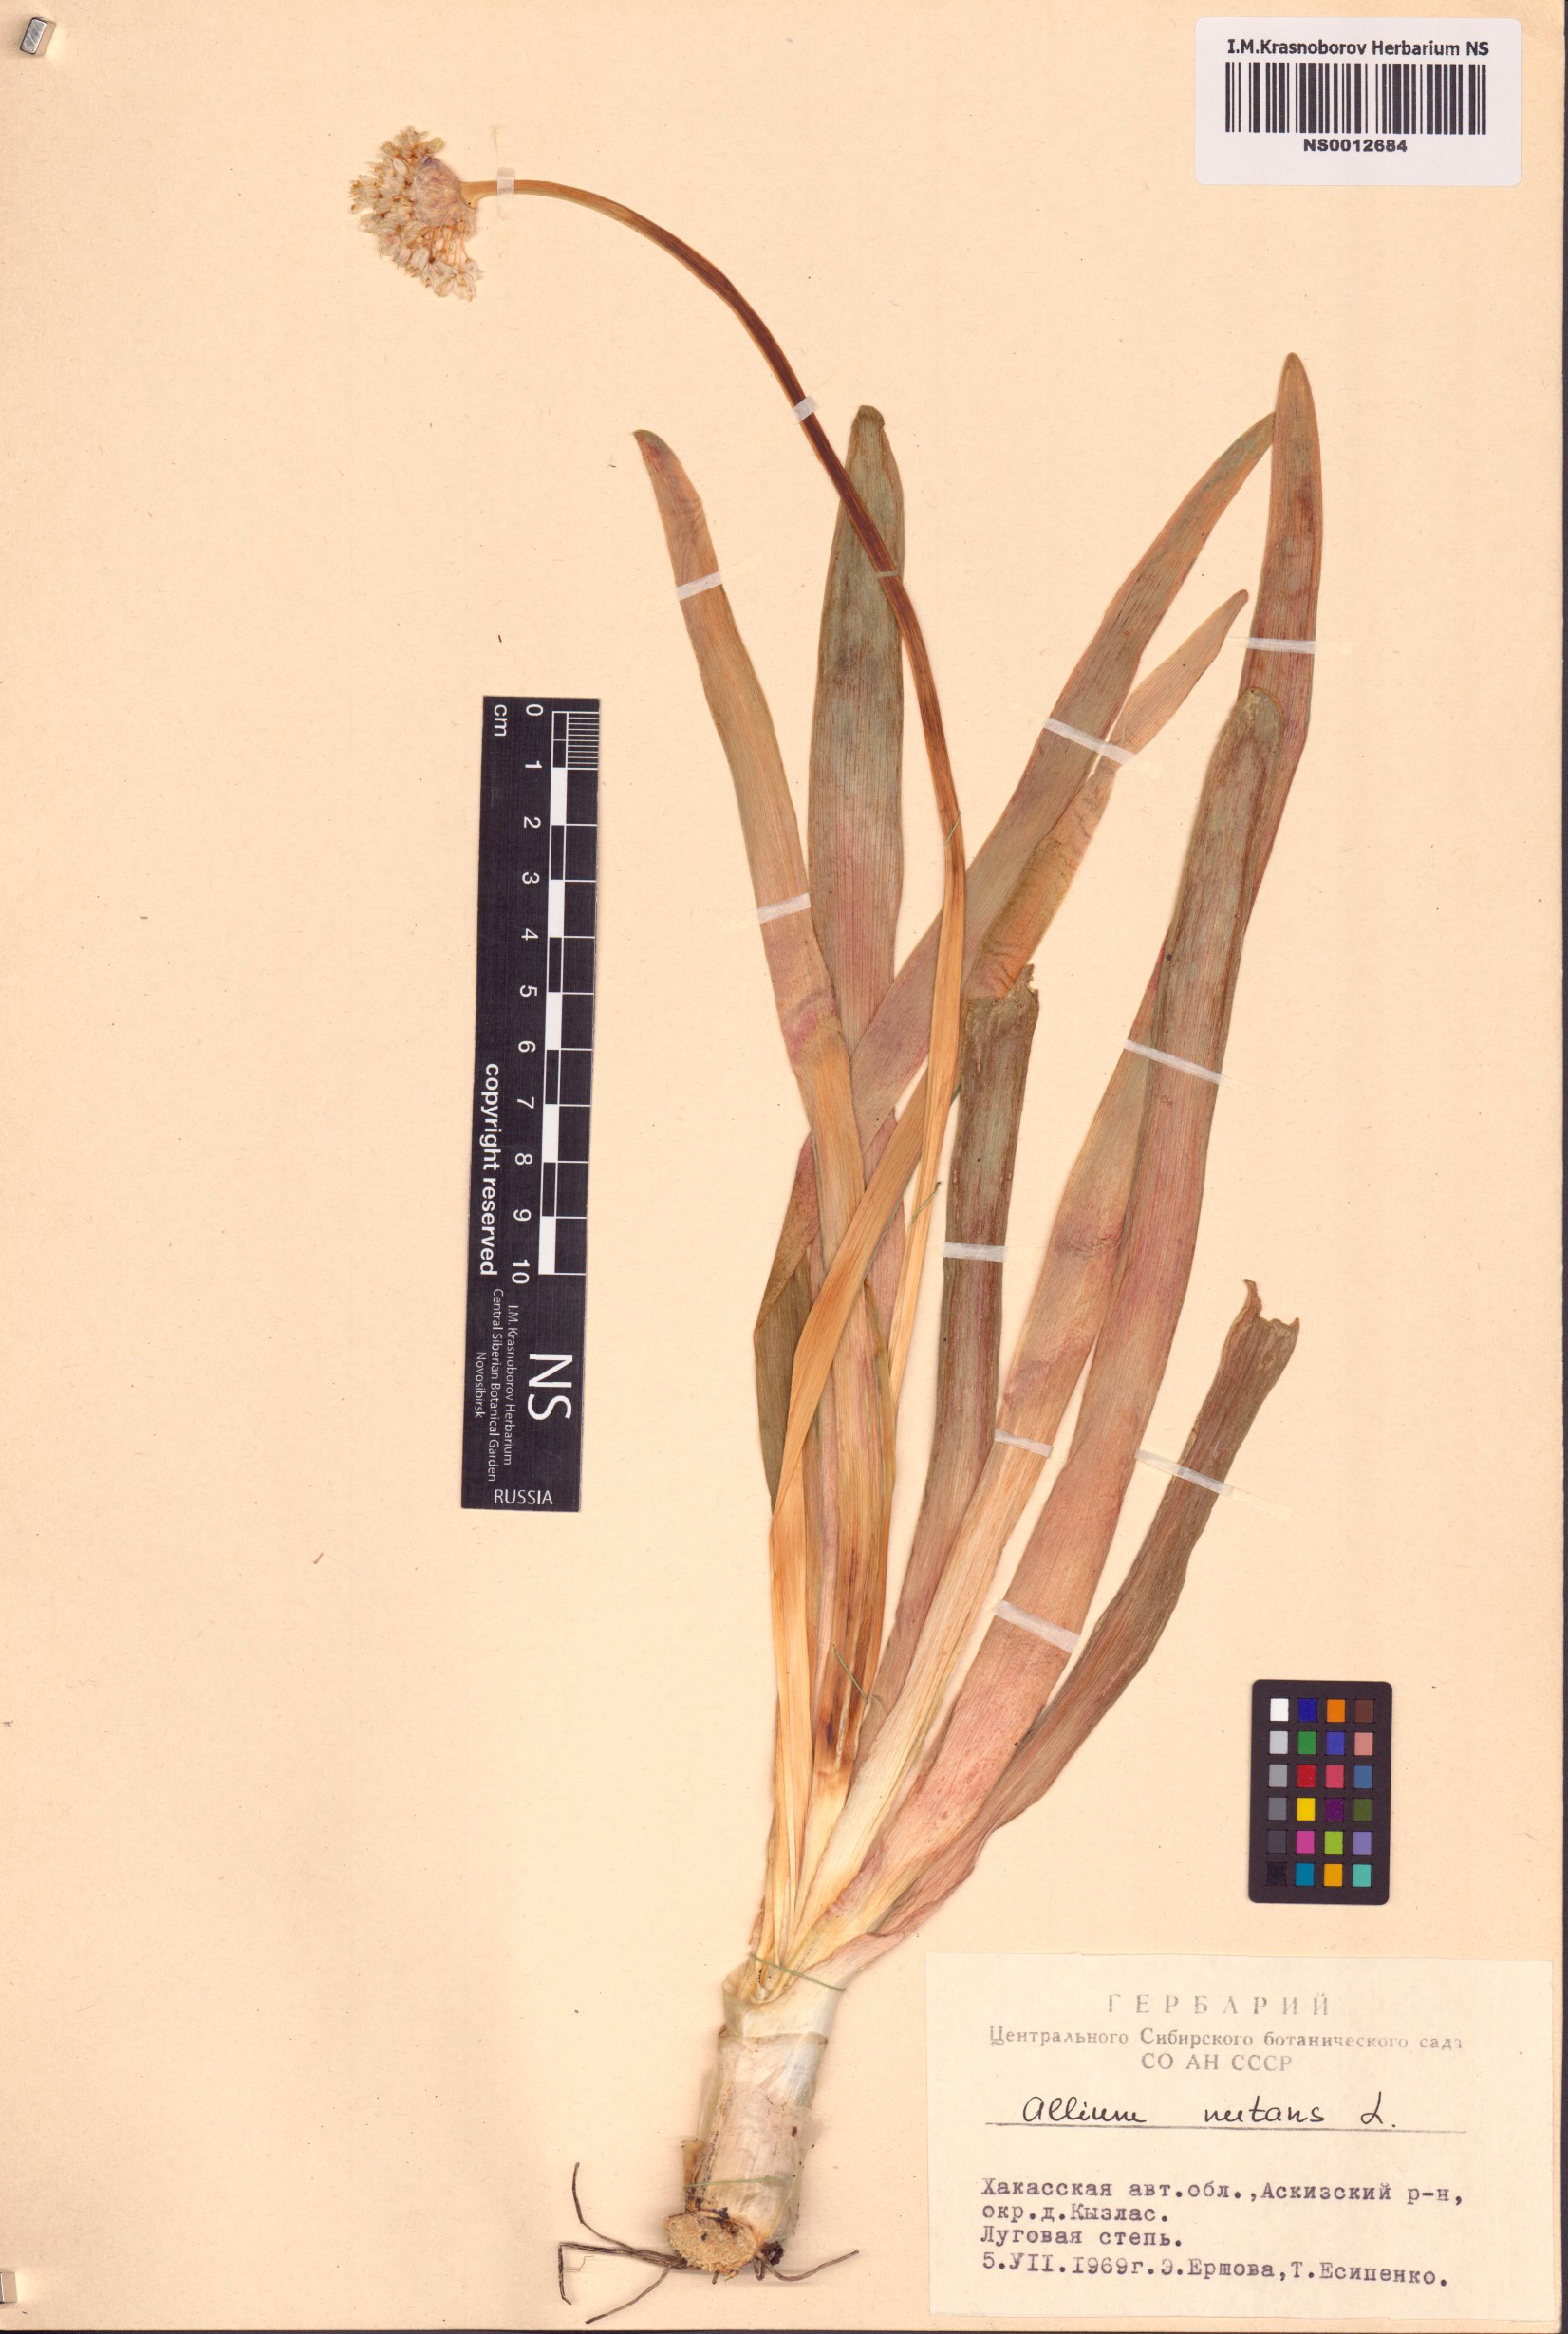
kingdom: Plantae
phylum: Tracheophyta
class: Liliopsida
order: Asparagales
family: Amaryllidaceae
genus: Allium
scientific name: Allium nutans
